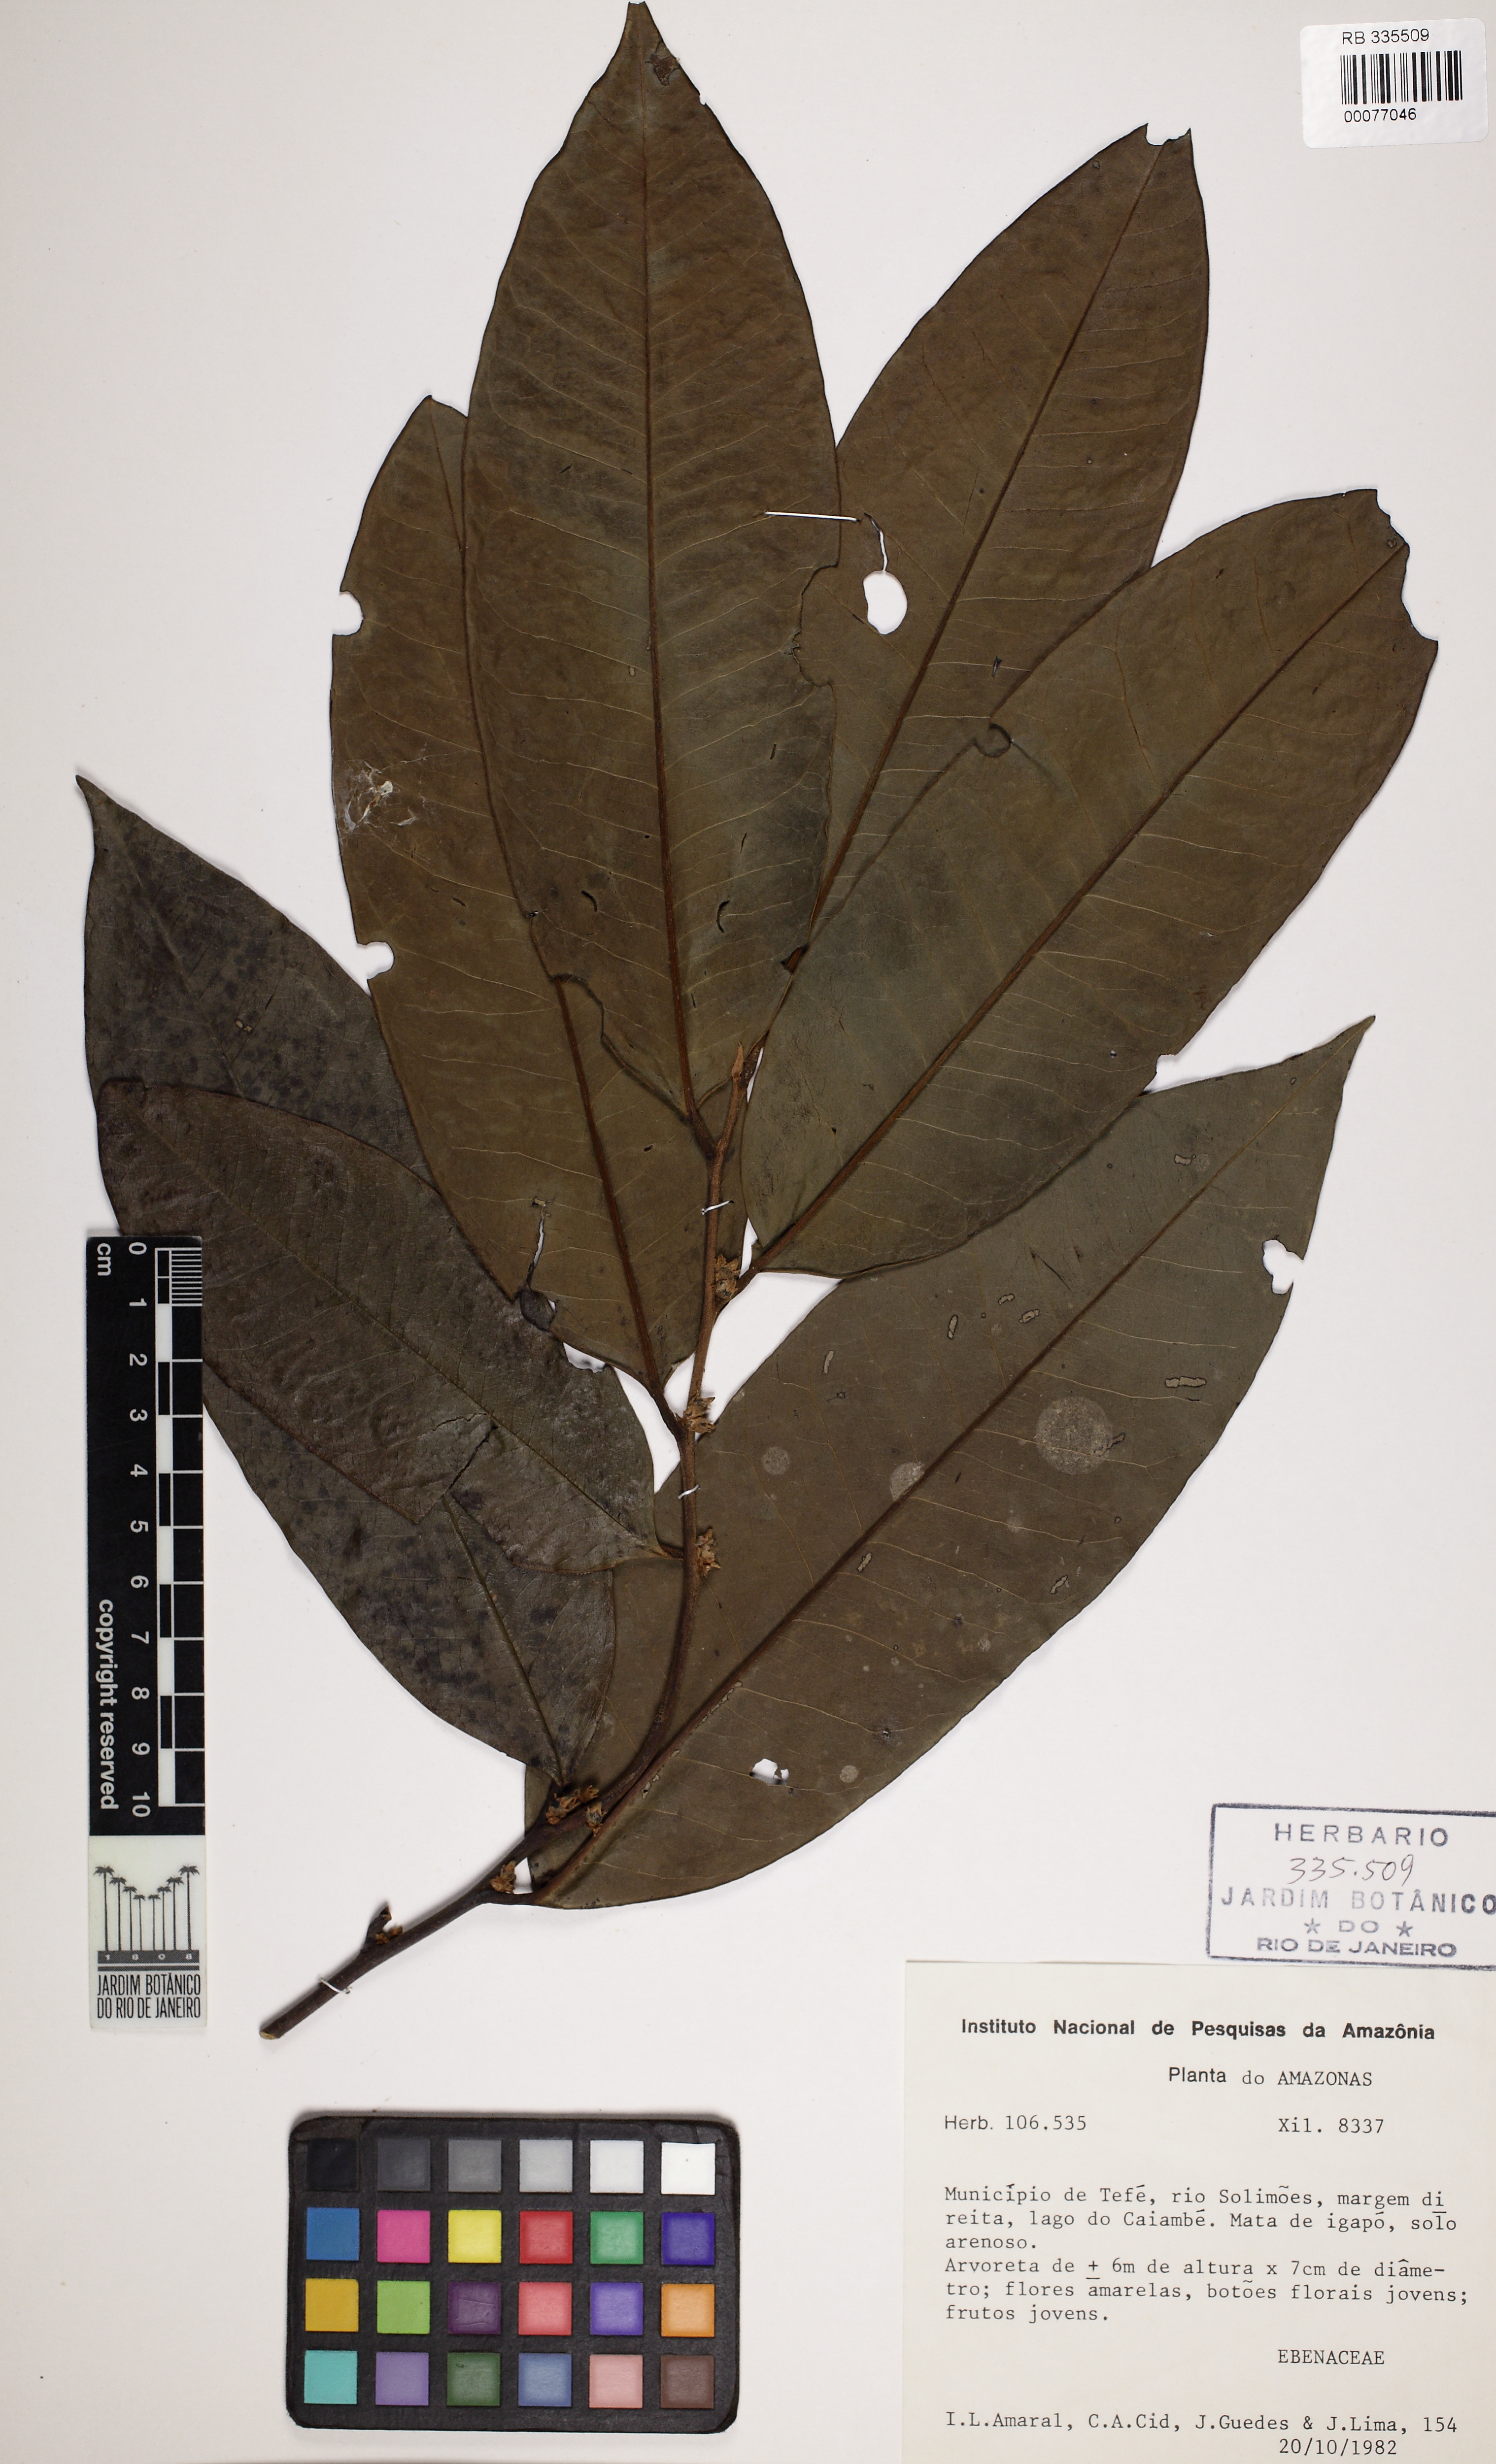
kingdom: Plantae
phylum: Tracheophyta
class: Magnoliopsida
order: Ericales
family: Ebenaceae
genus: Diospyros
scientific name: Diospyros
